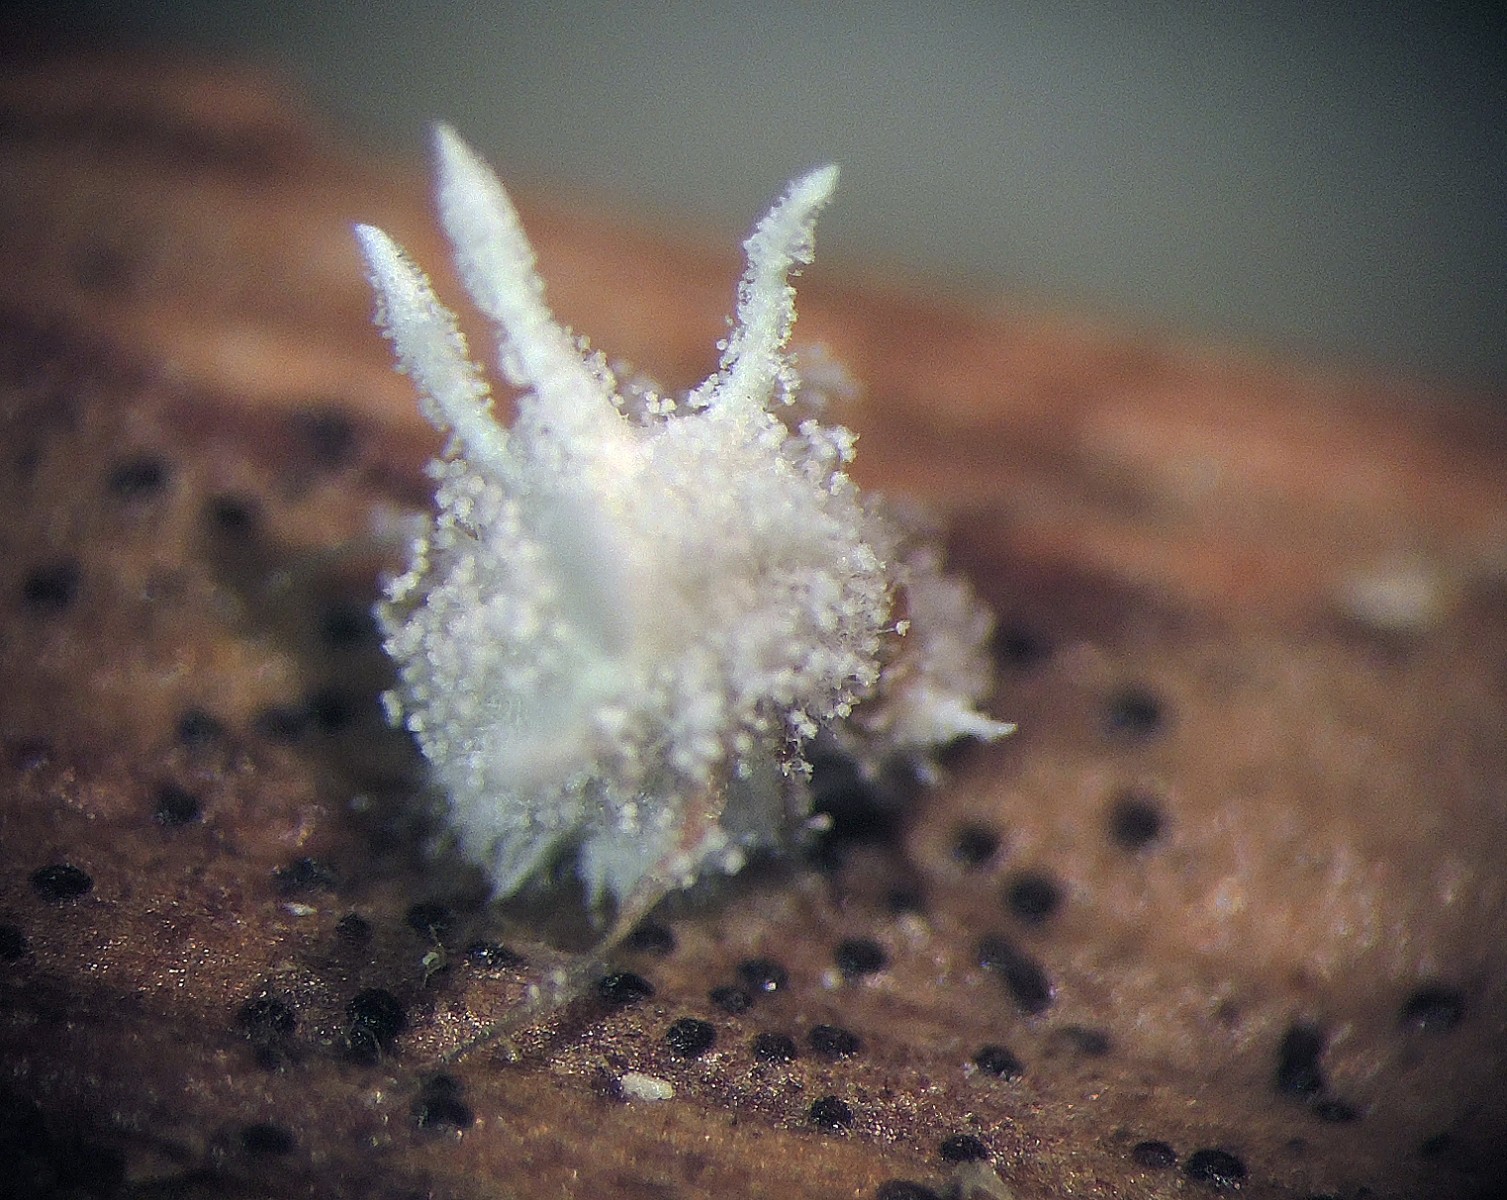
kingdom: Fungi
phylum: Ascomycota
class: Sordariomycetes
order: Hypocreales
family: Cordycipitaceae
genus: Gibellula
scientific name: Gibellula pulchra
